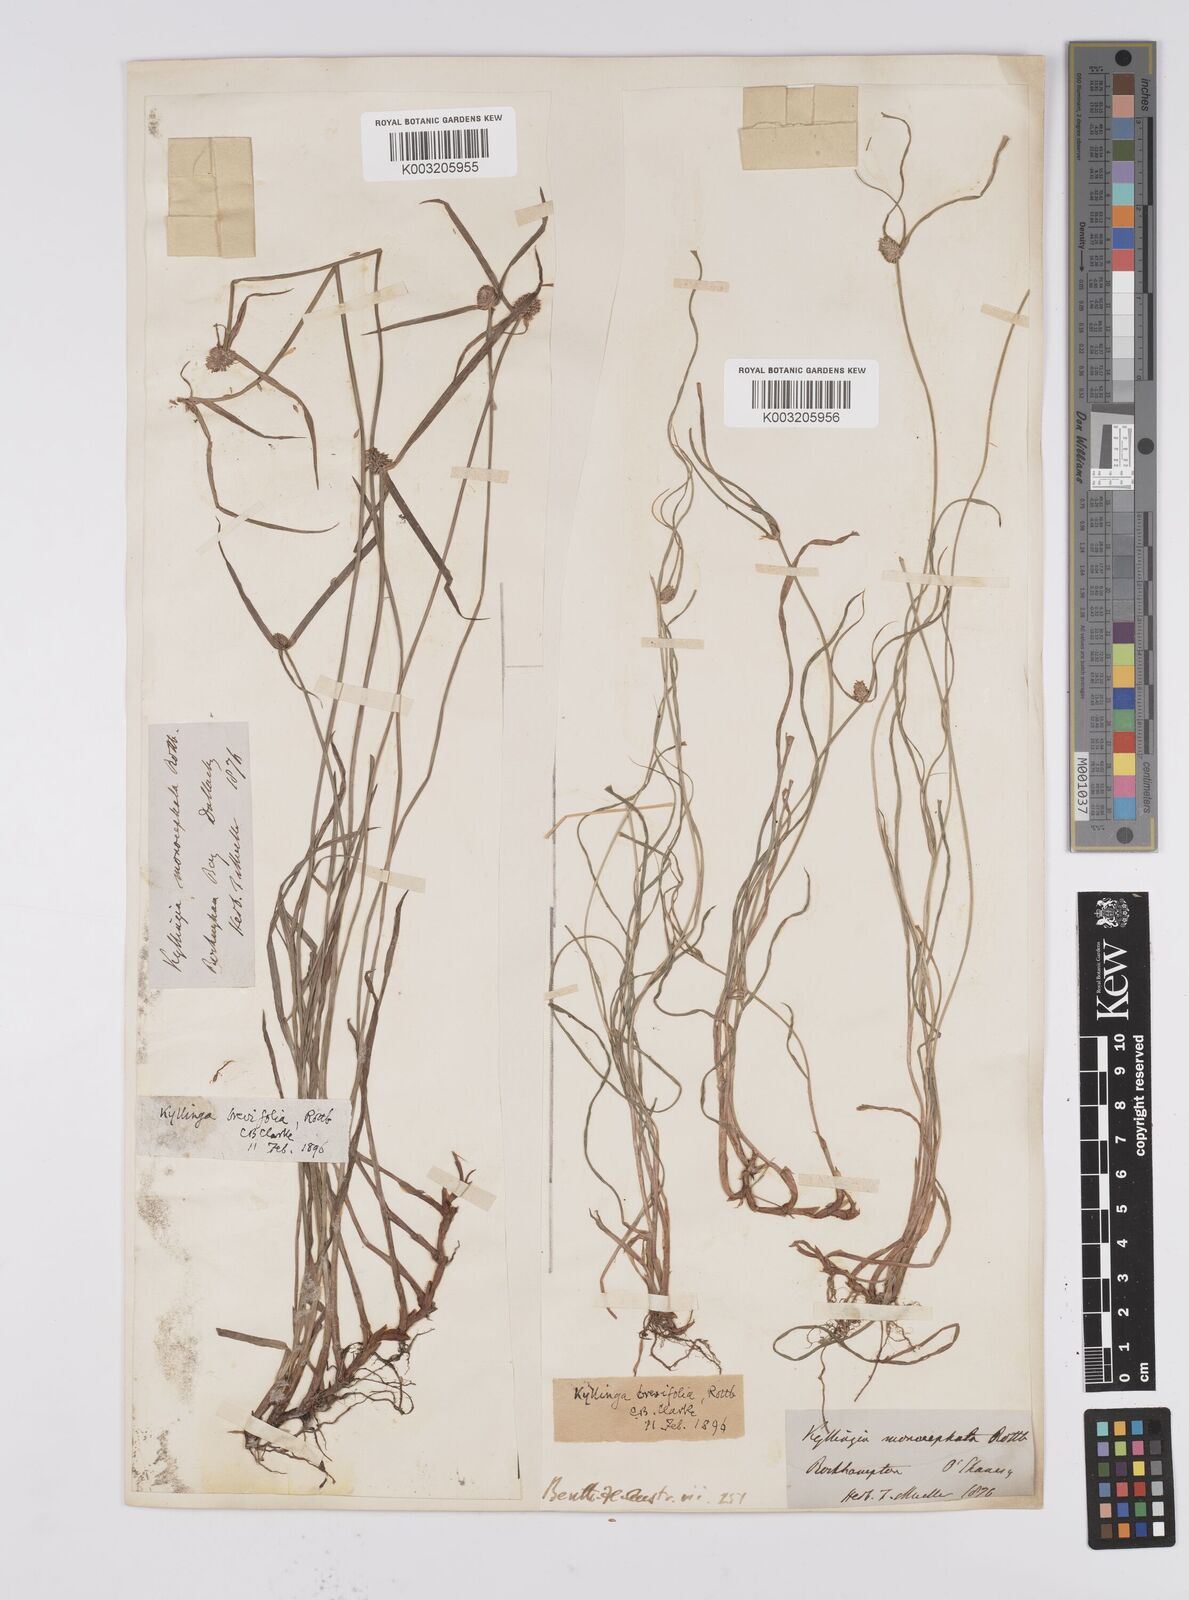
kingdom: Plantae
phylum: Tracheophyta
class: Liliopsida
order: Poales
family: Cyperaceae
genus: Cyperus
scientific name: Cyperus brevifolius
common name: Globe kyllinga
